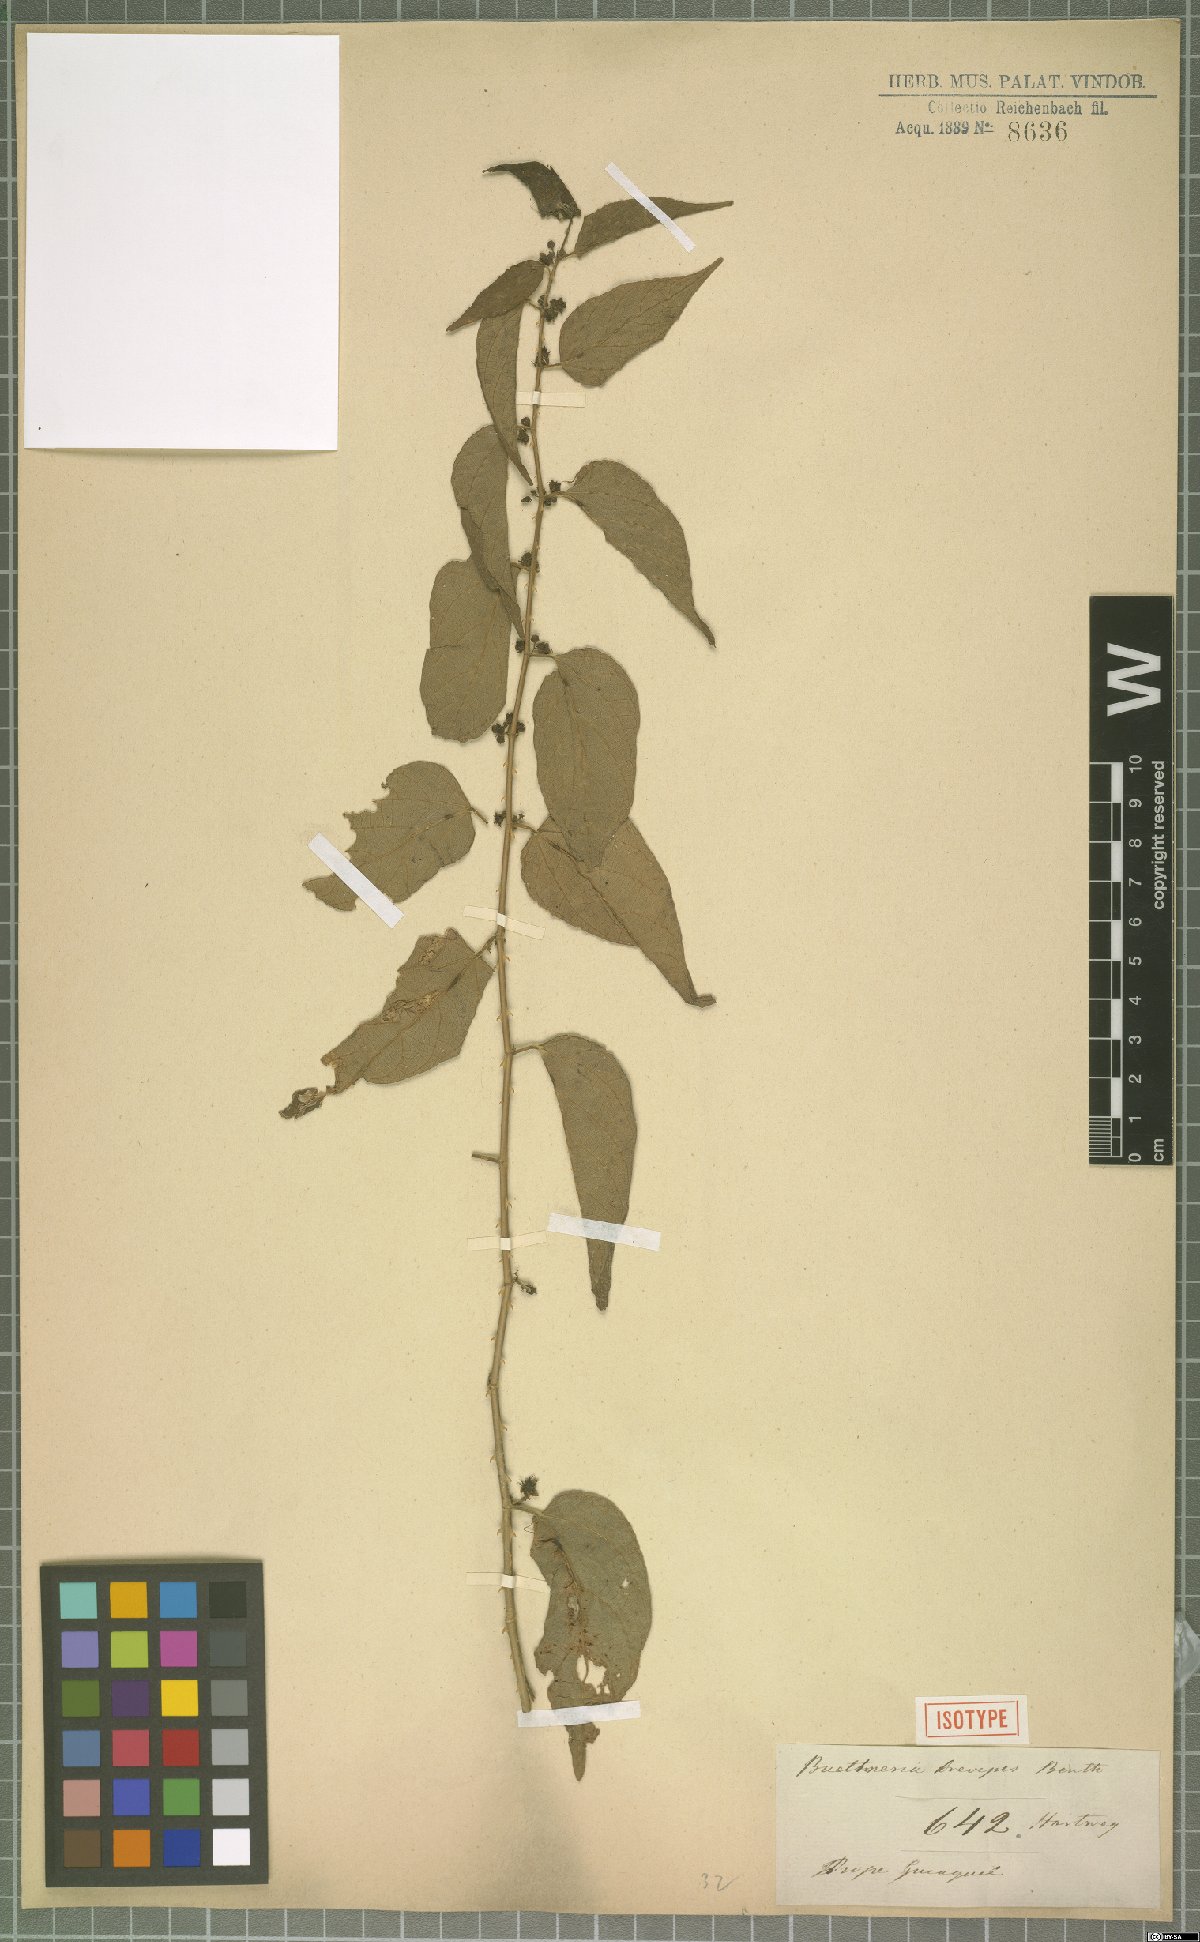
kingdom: Plantae
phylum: Tracheophyta
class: Magnoliopsida
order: Malvales
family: Malvaceae
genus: Byttneria
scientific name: Byttneria aculeata
